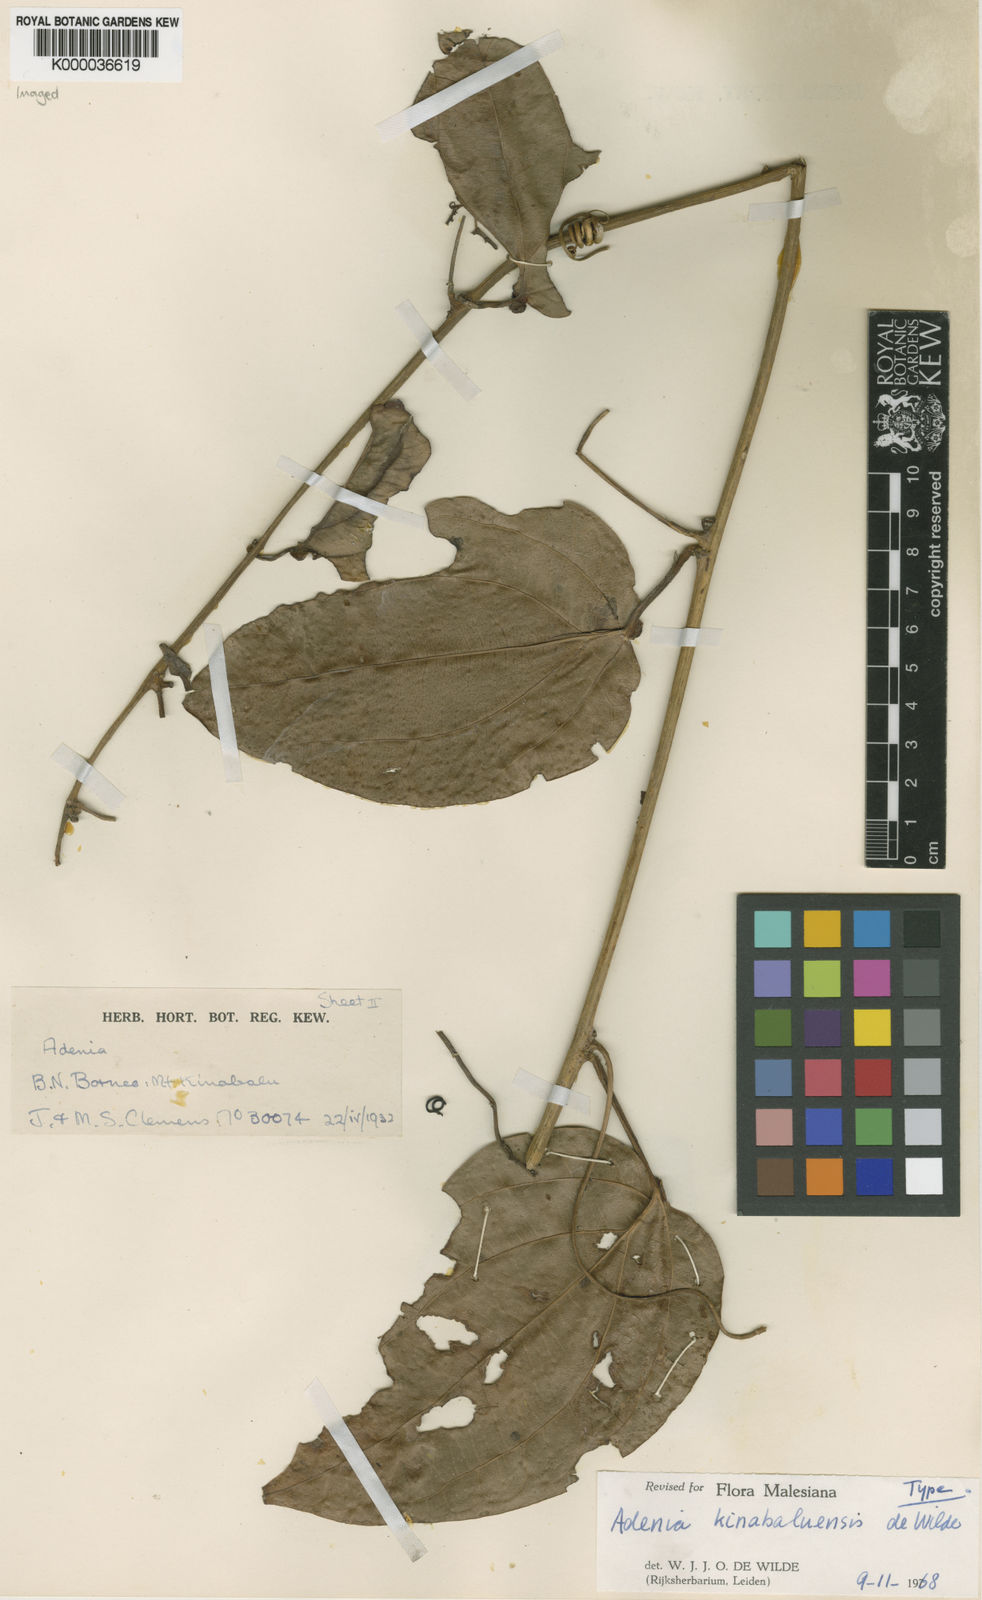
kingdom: Plantae
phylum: Tracheophyta
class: Magnoliopsida
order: Malpighiales
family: Passifloraceae
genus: Adenia
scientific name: Adenia kinabaluensis
